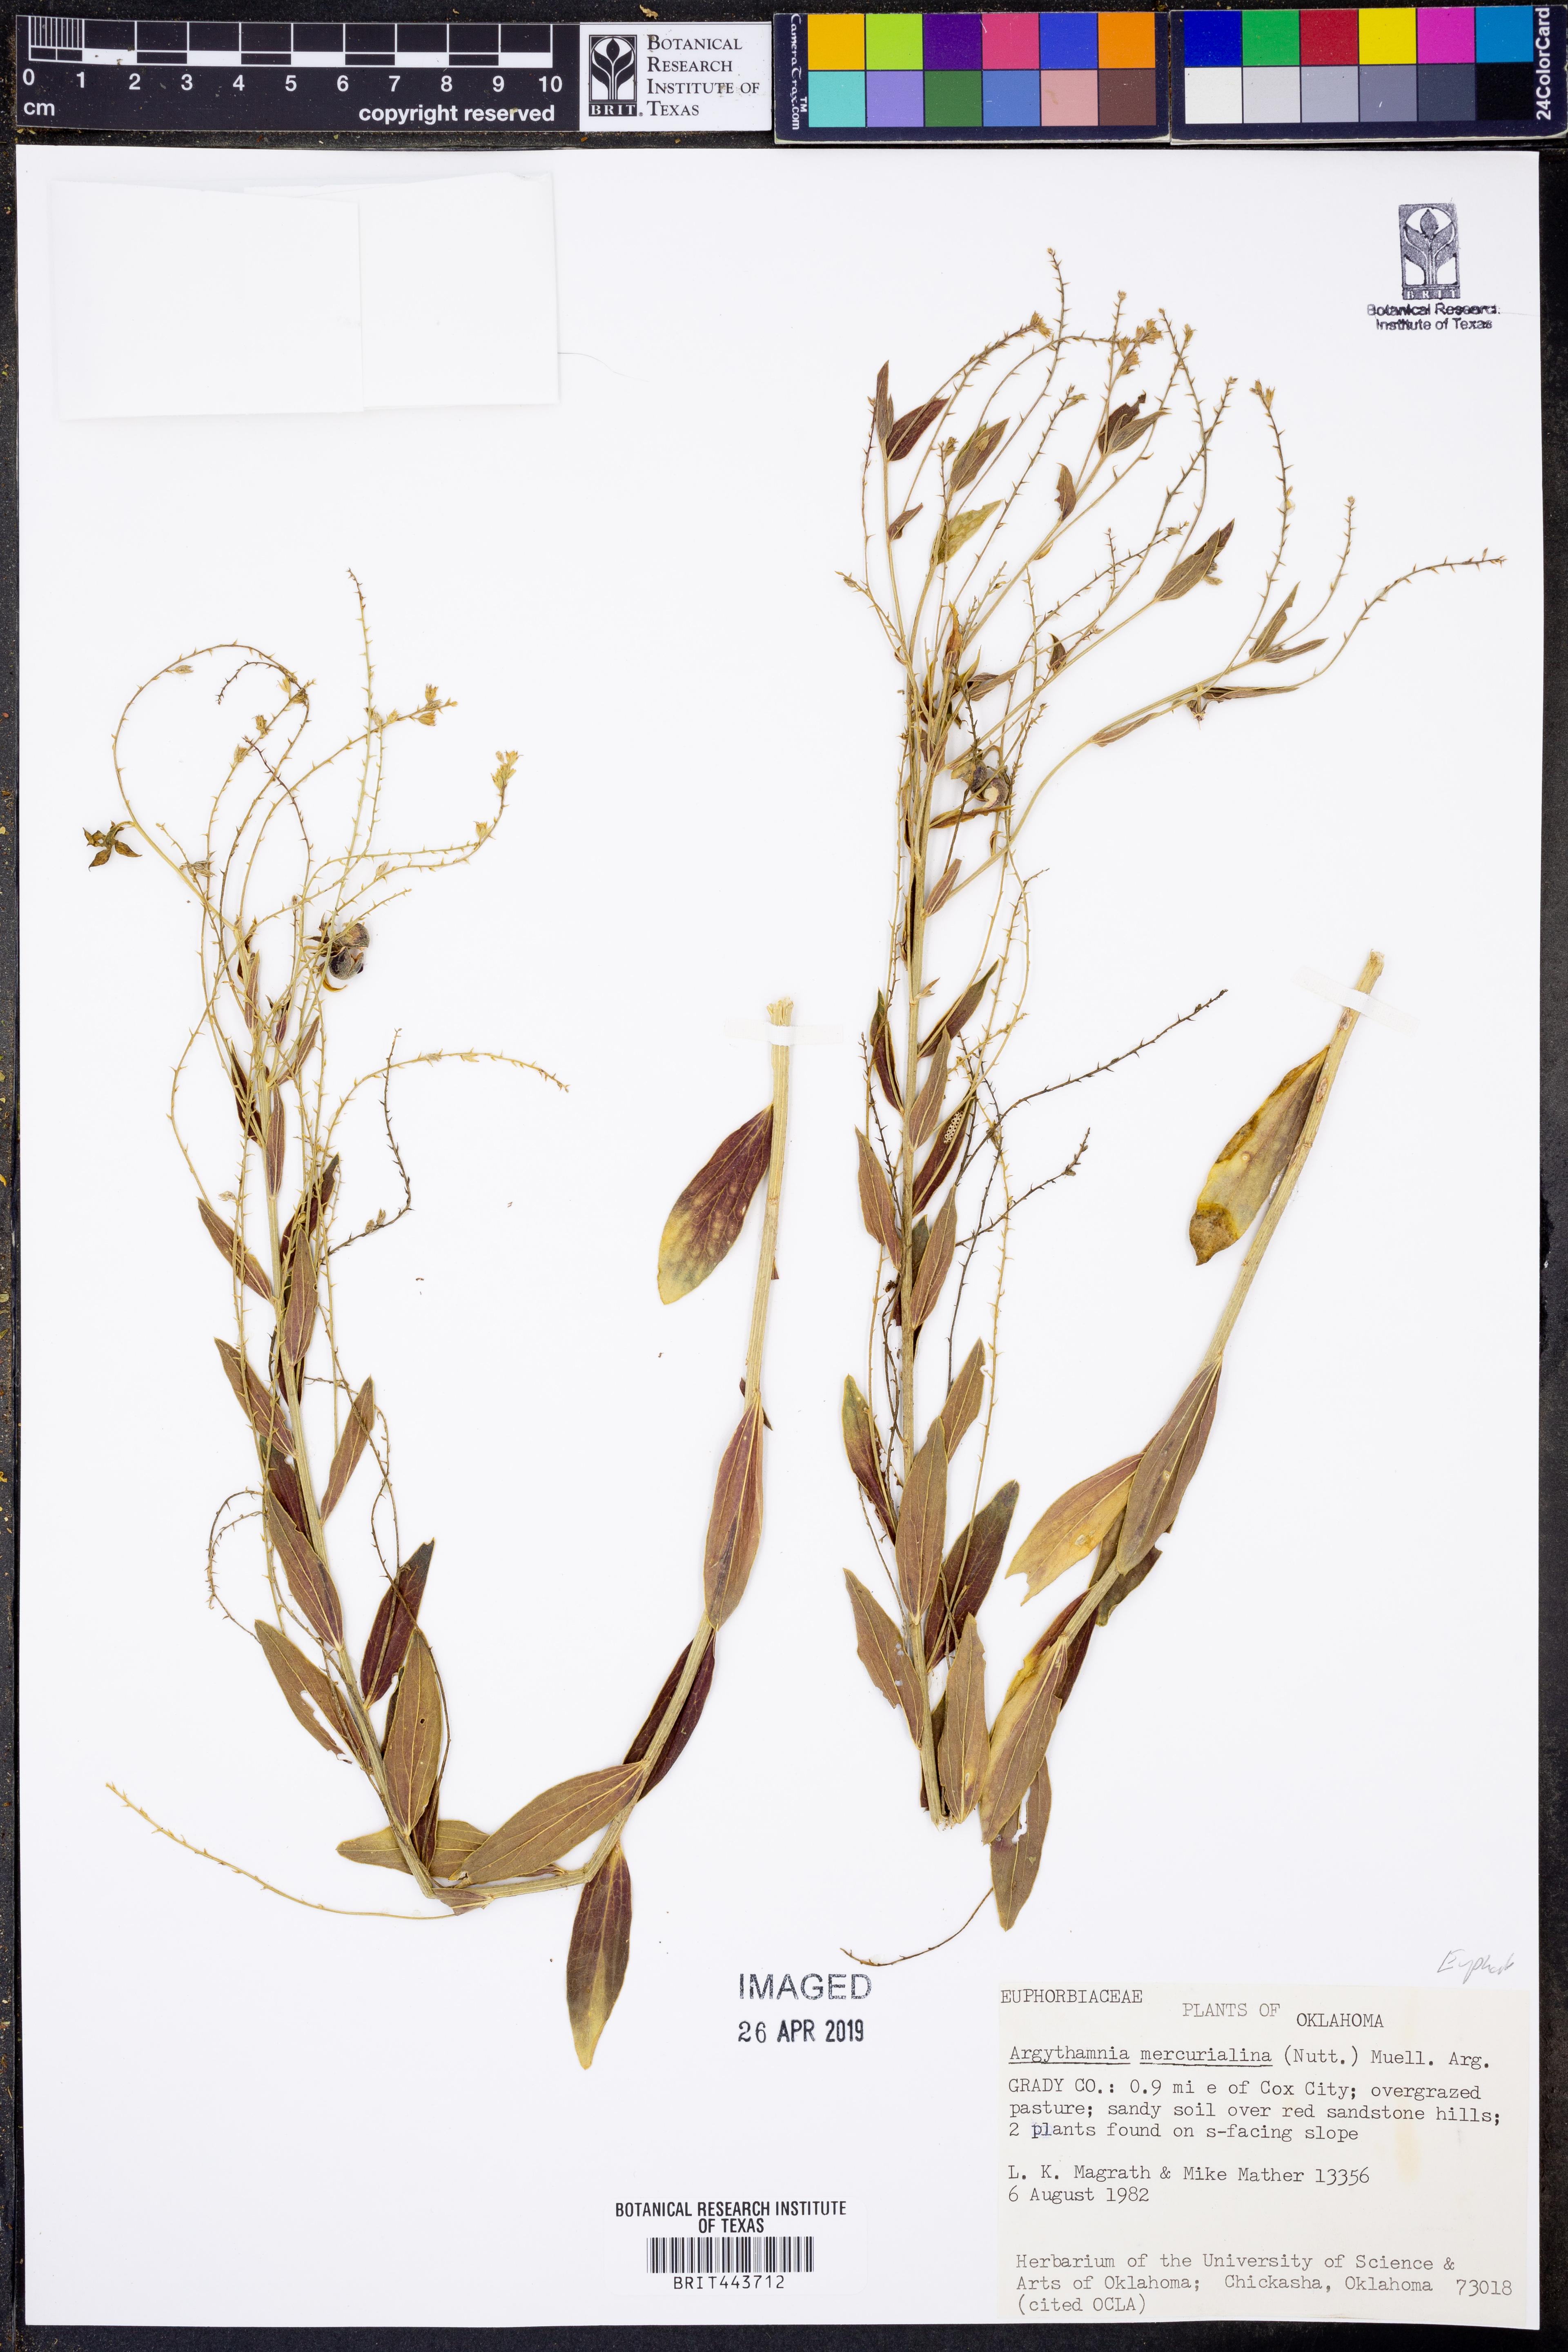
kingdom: Plantae
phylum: Tracheophyta
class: Magnoliopsida
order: Malpighiales
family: Euphorbiaceae
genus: Ditaxis
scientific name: Ditaxis mercurialina
